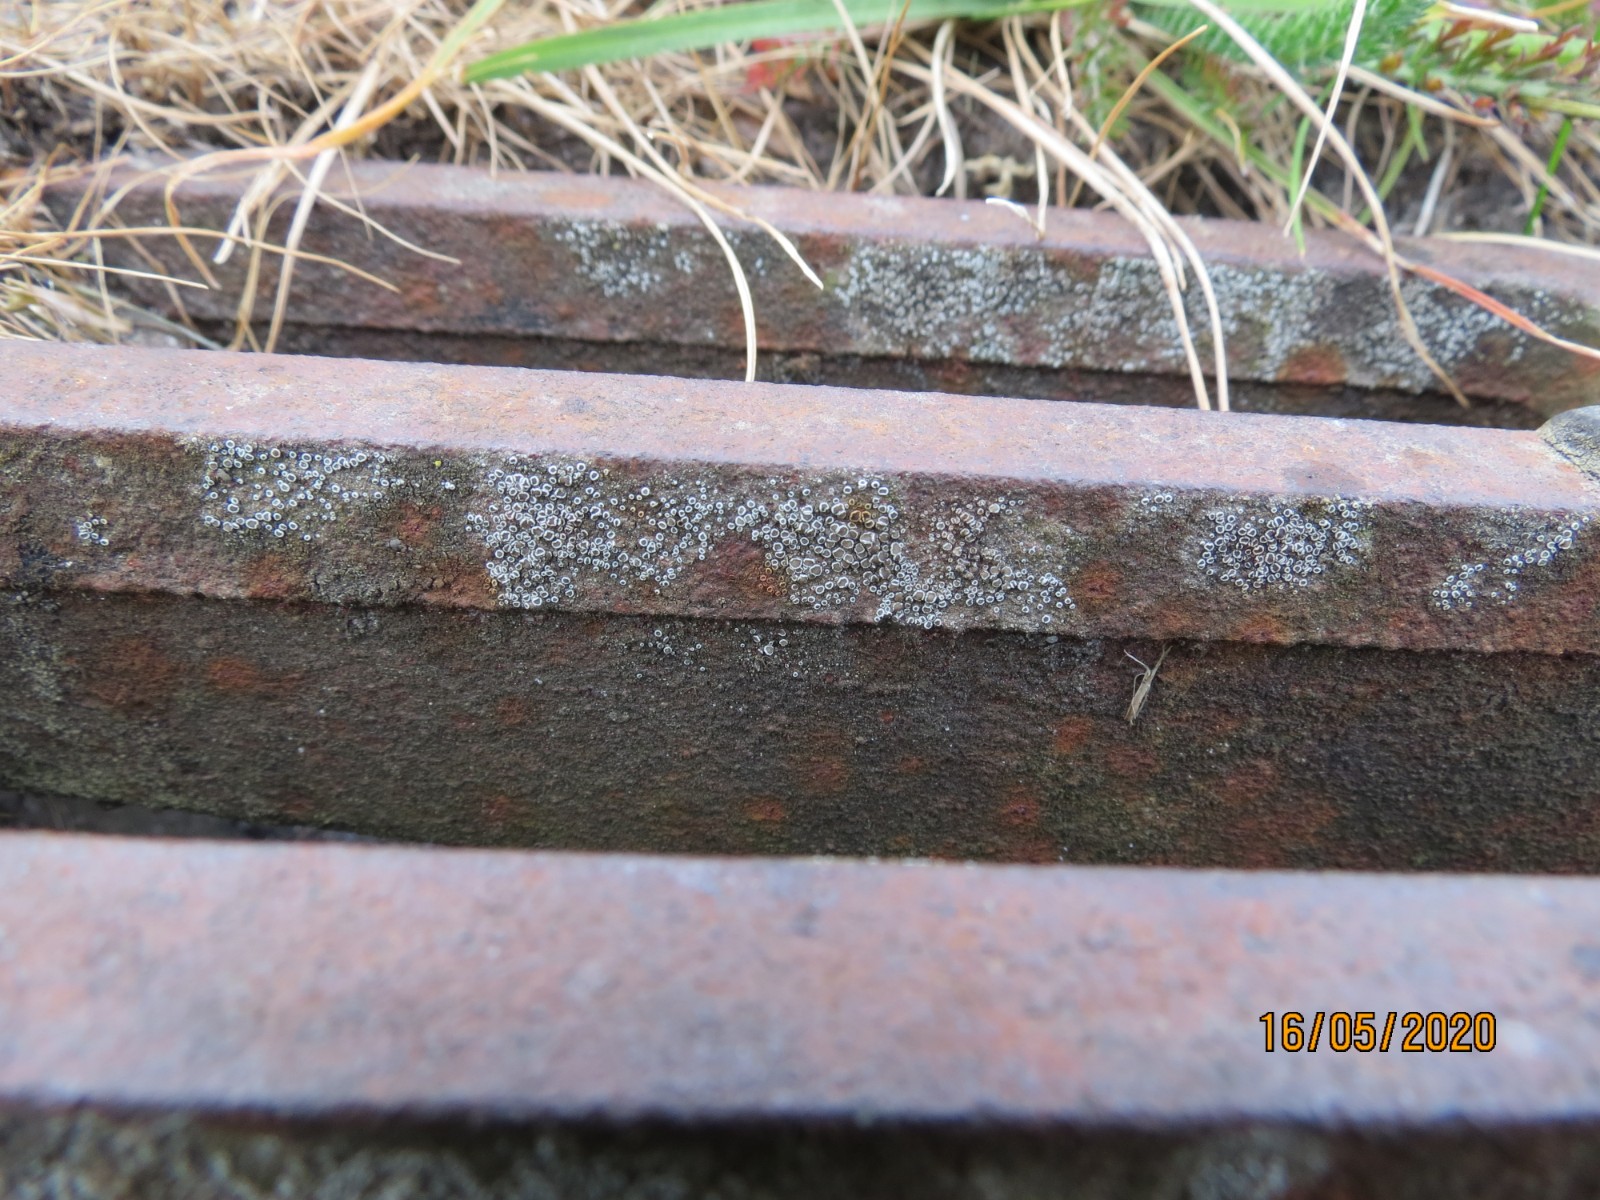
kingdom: Fungi
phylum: Ascomycota
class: Lecanoromycetes
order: Lecanorales
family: Lecanoraceae
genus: Polyozosia
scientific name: Polyozosia dispersa
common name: spredt kantskivelav
